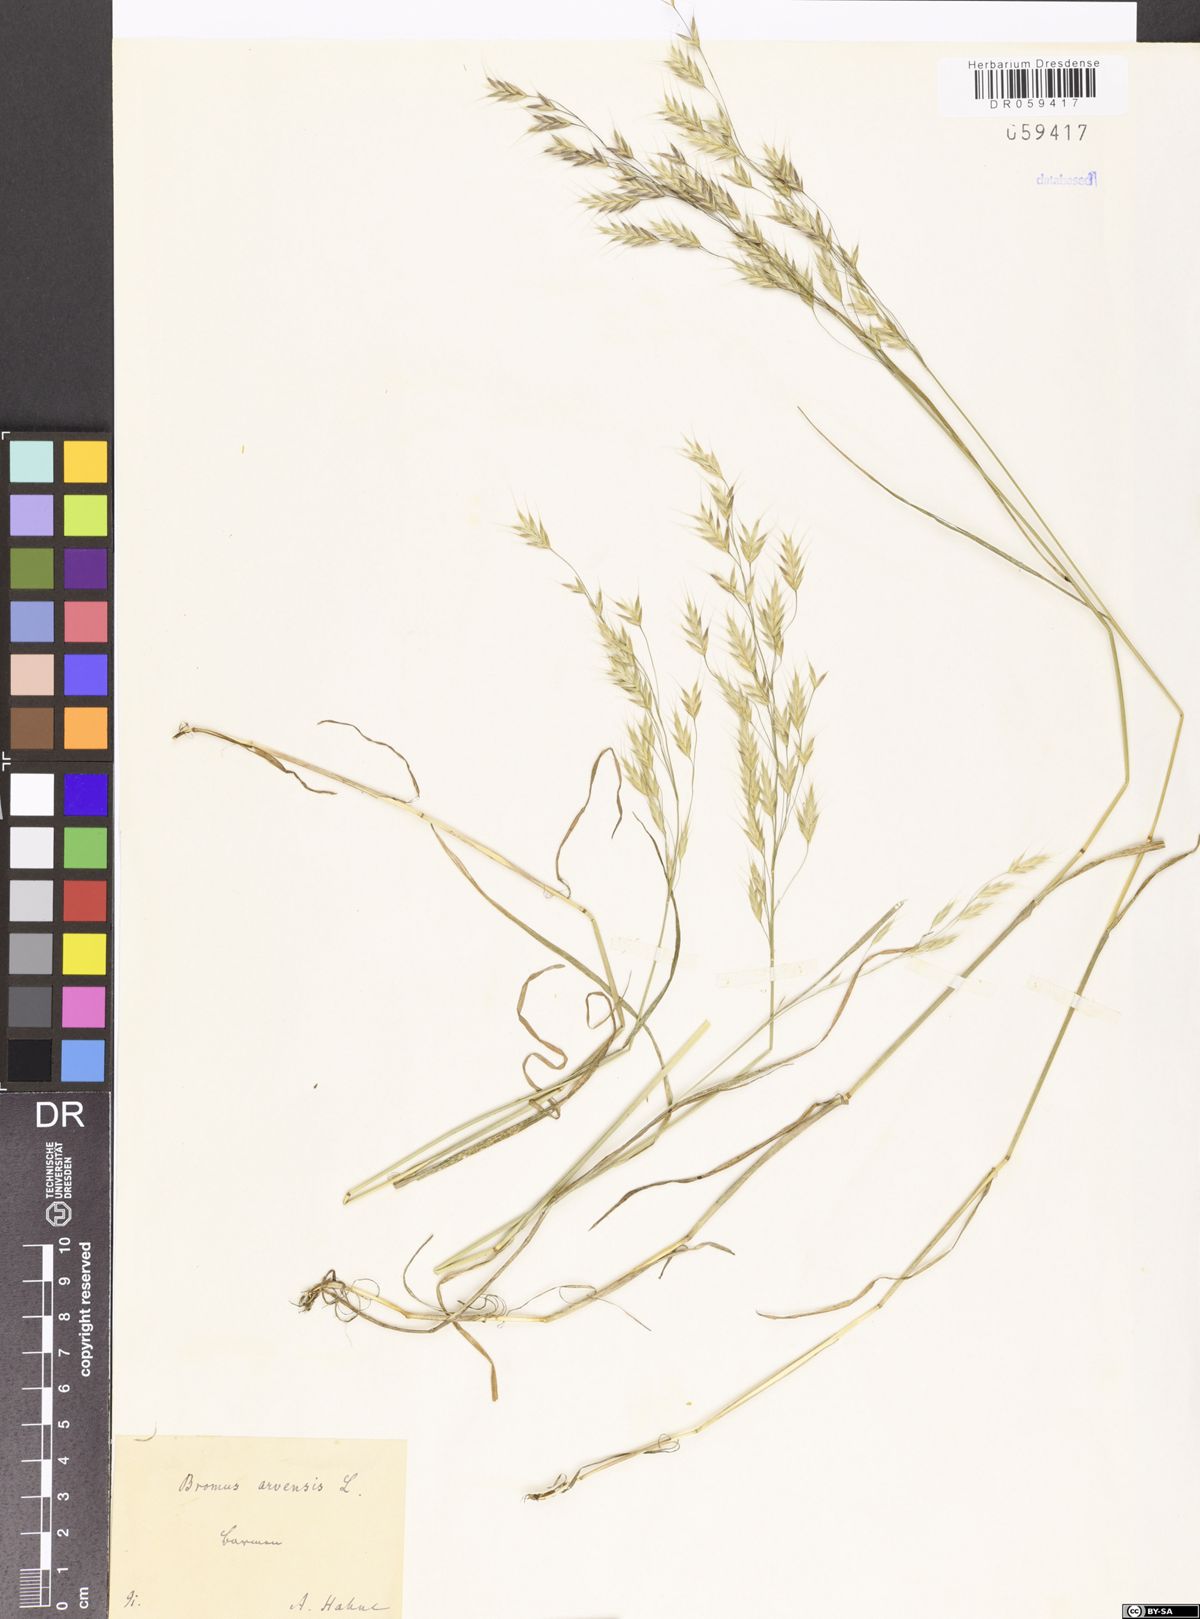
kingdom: Plantae
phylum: Tracheophyta
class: Liliopsida
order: Poales
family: Poaceae
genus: Bromus
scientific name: Bromus arvensis
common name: Field brome
